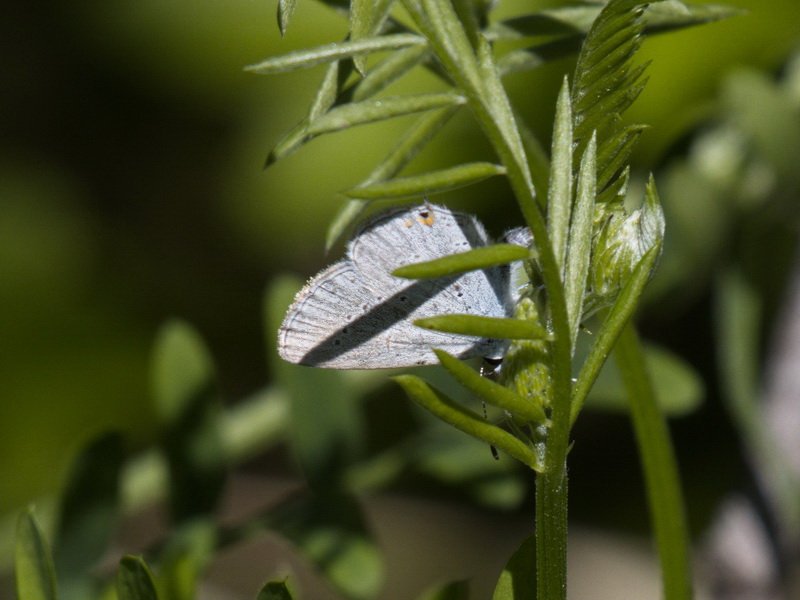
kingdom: Animalia
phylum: Arthropoda
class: Insecta
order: Lepidoptera
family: Lycaenidae
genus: Elkalyce
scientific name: Elkalyce amyntula
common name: Western Tailed-Blue
